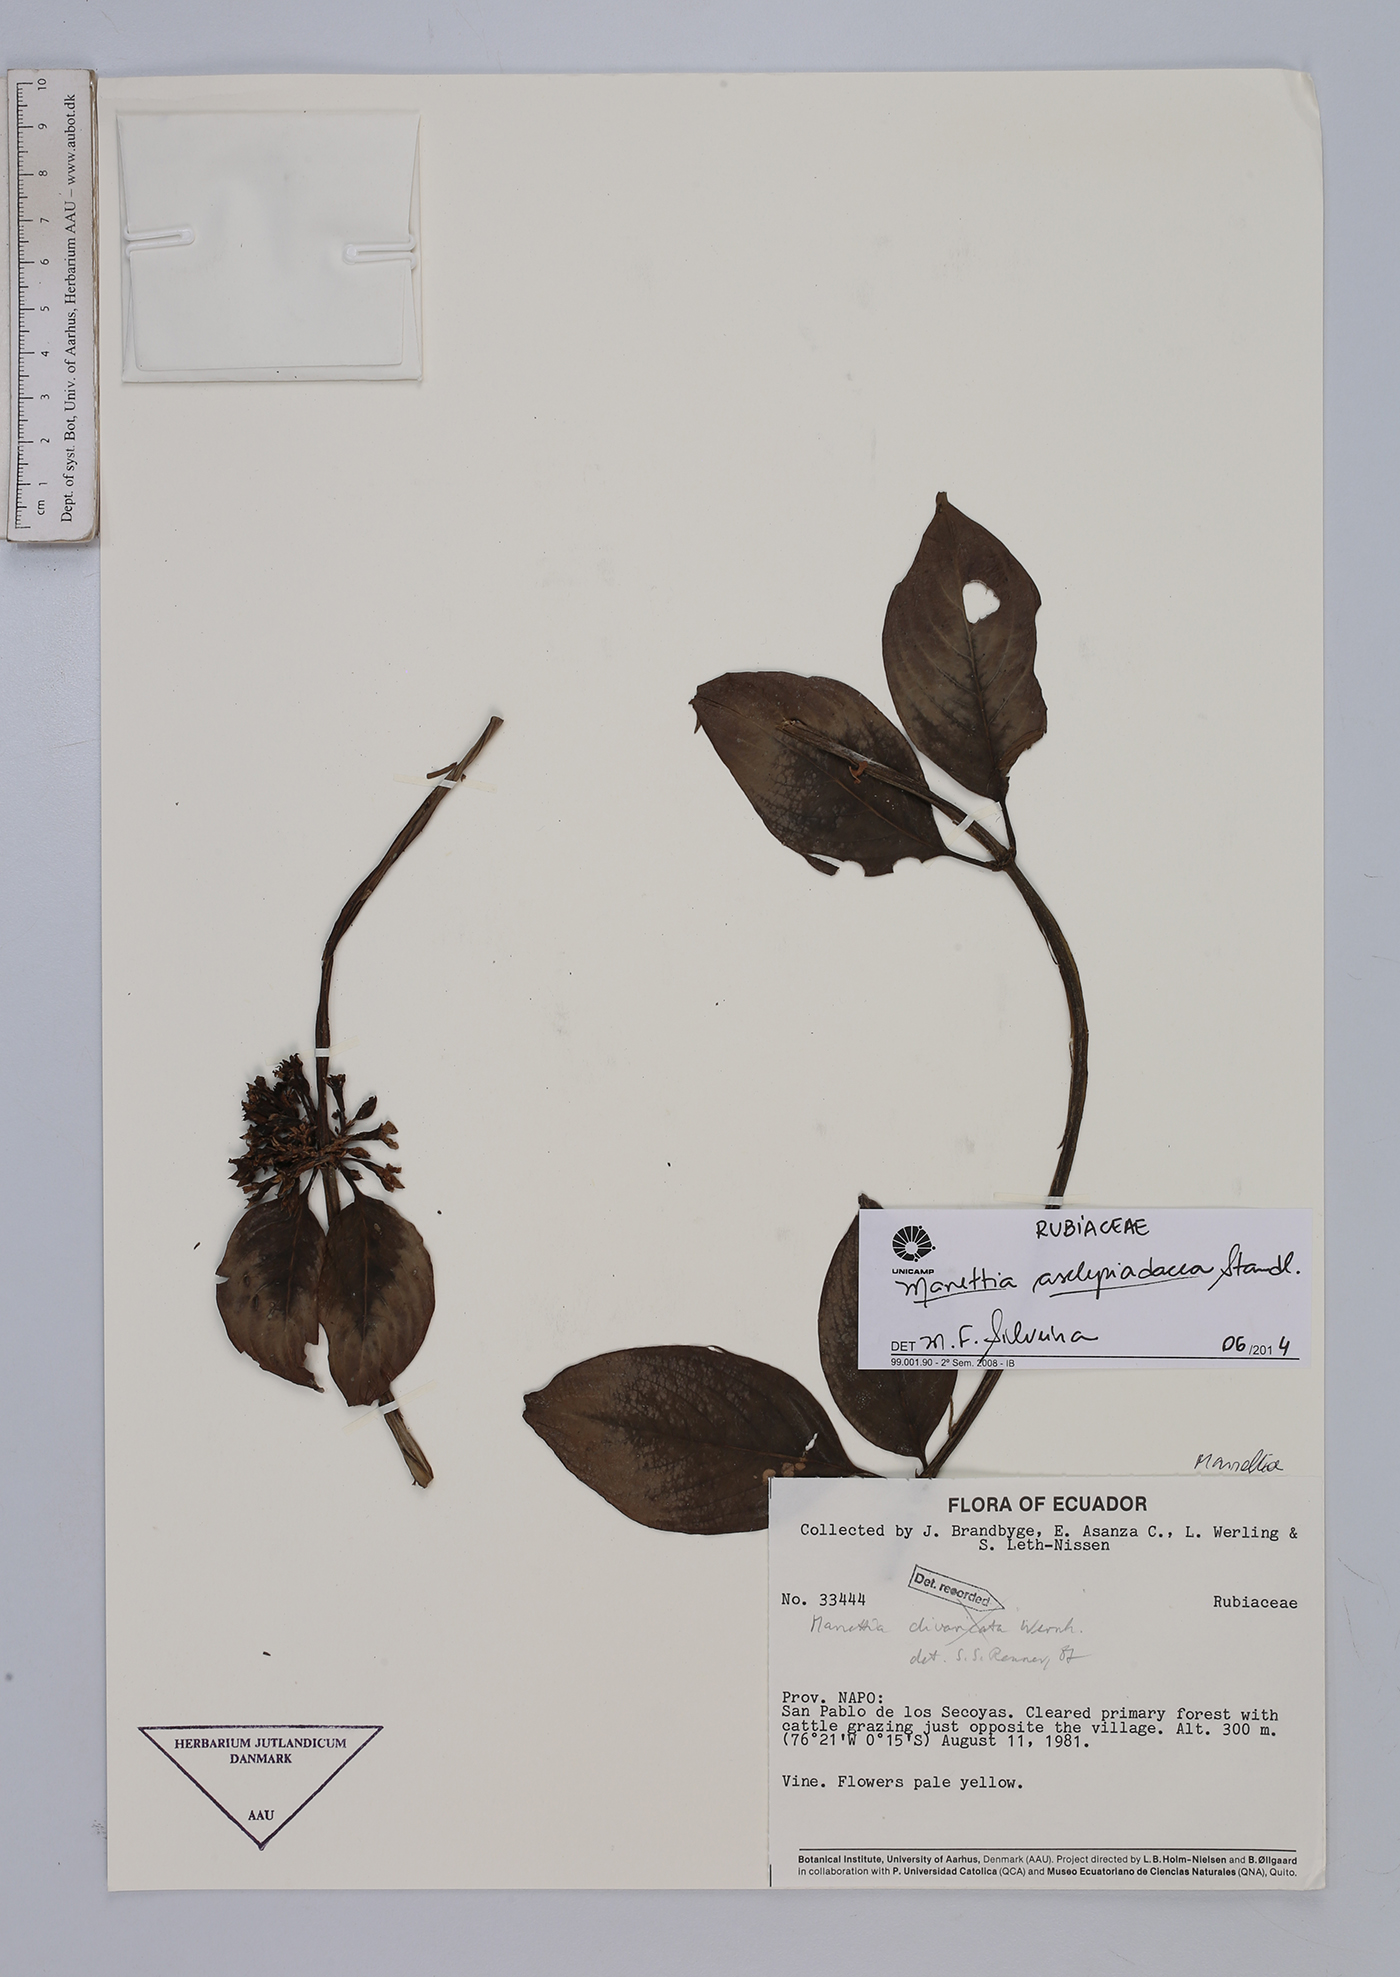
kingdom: Plantae
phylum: Tracheophyta
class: Magnoliopsida
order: Gentianales
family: Rubiaceae
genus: Manettia
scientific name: Manettia asclepiadacea
